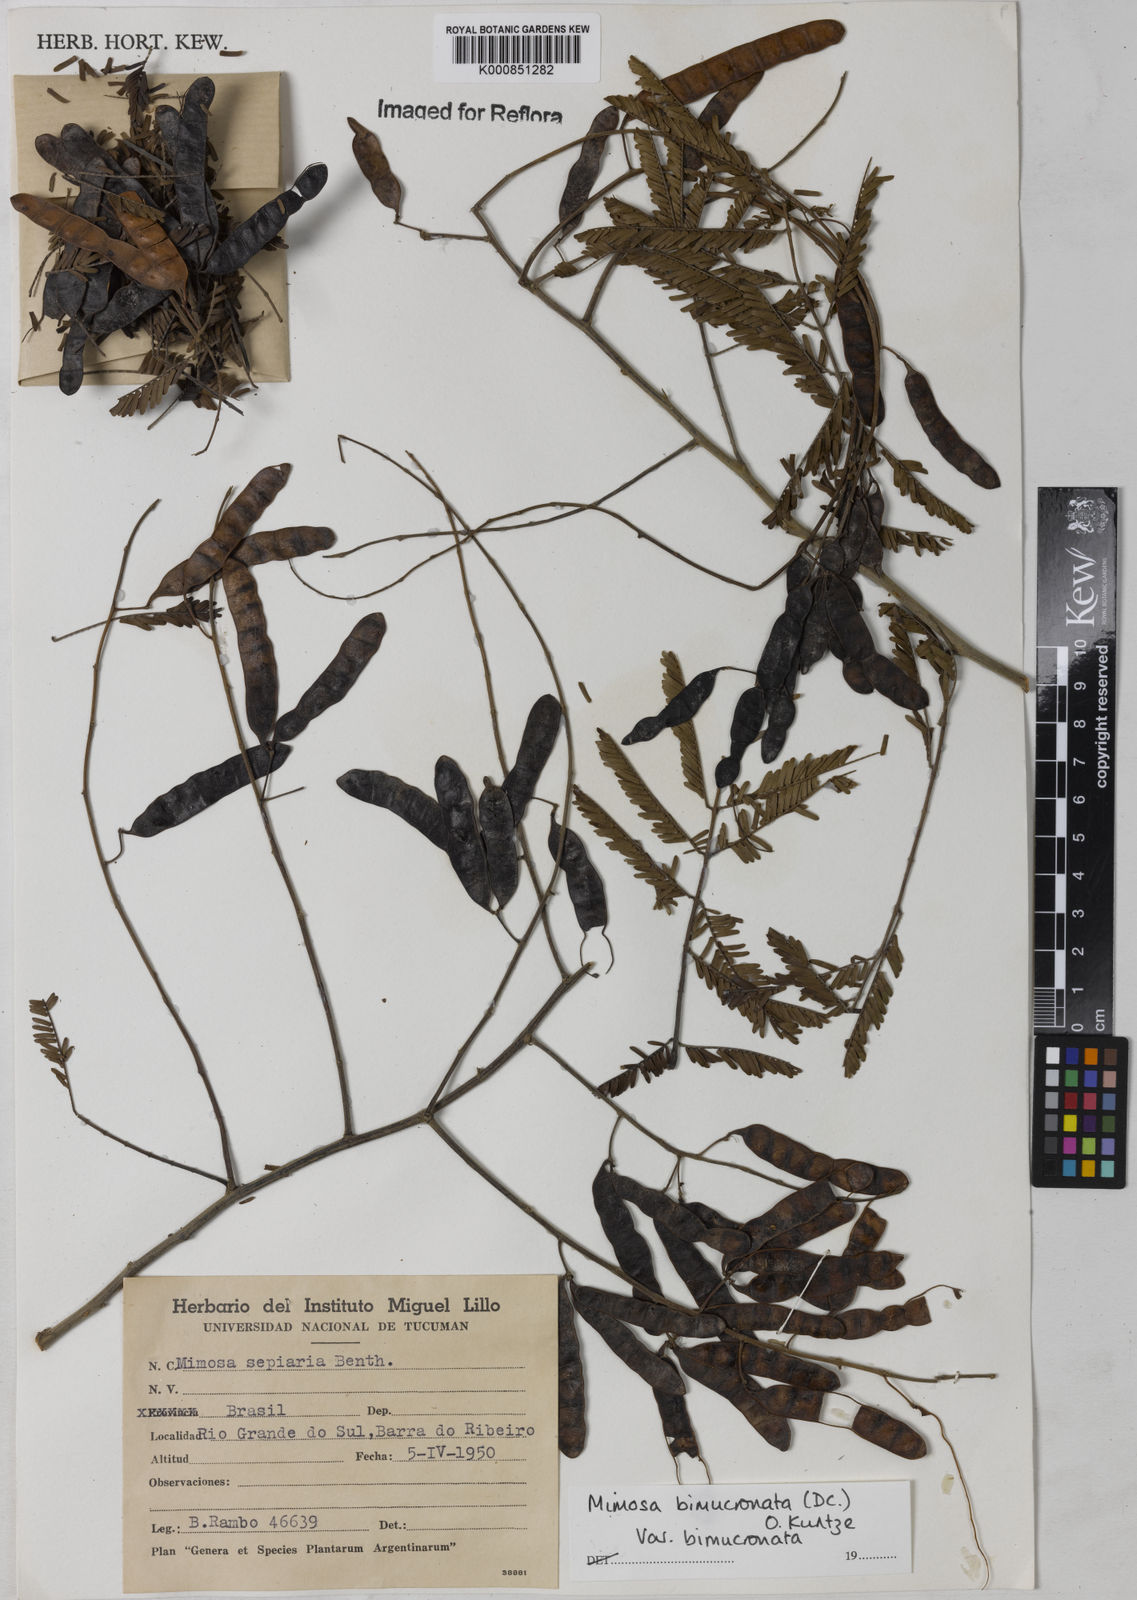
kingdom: Plantae
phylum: Tracheophyta
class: Magnoliopsida
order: Fabales
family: Fabaceae
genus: Mimosa
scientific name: Mimosa bimucronata
